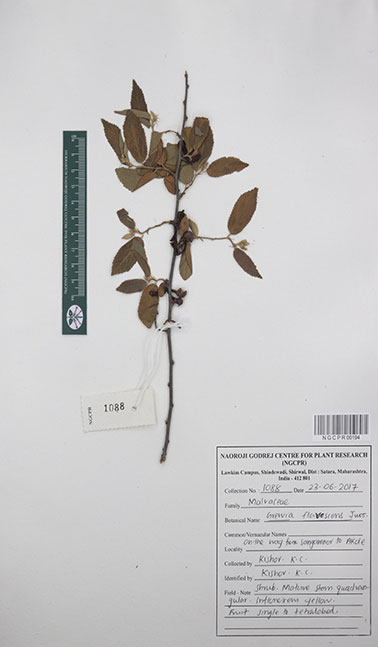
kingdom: Plantae
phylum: Tracheophyta
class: Magnoliopsida
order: Malvales
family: Malvaceae
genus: Grewia
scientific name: Grewia flavescens
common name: Sandpaper raisin
